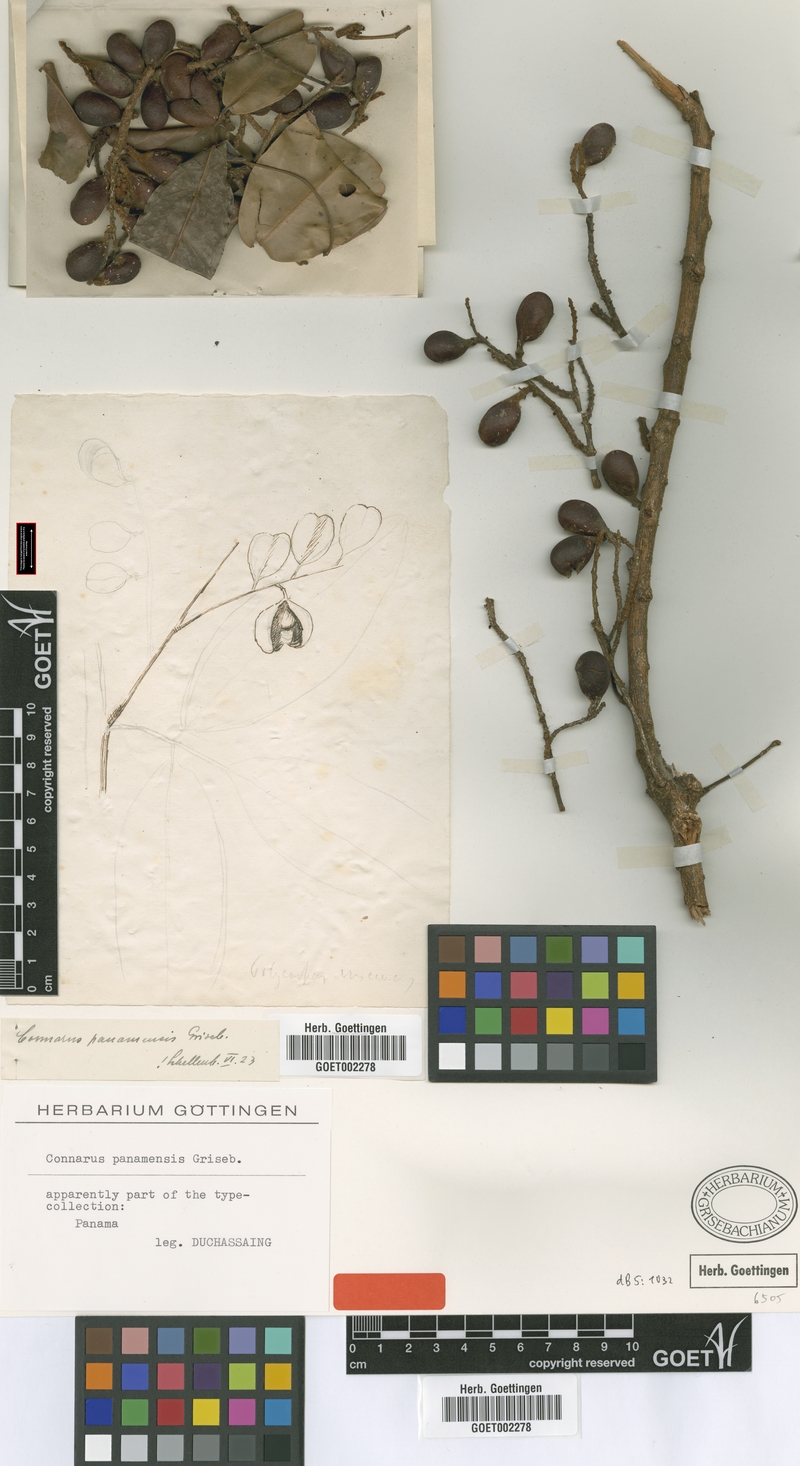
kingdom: Plantae
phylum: Tracheophyta
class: Magnoliopsida
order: Oxalidales
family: Connaraceae
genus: Connarus
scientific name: Connarus panamensis
